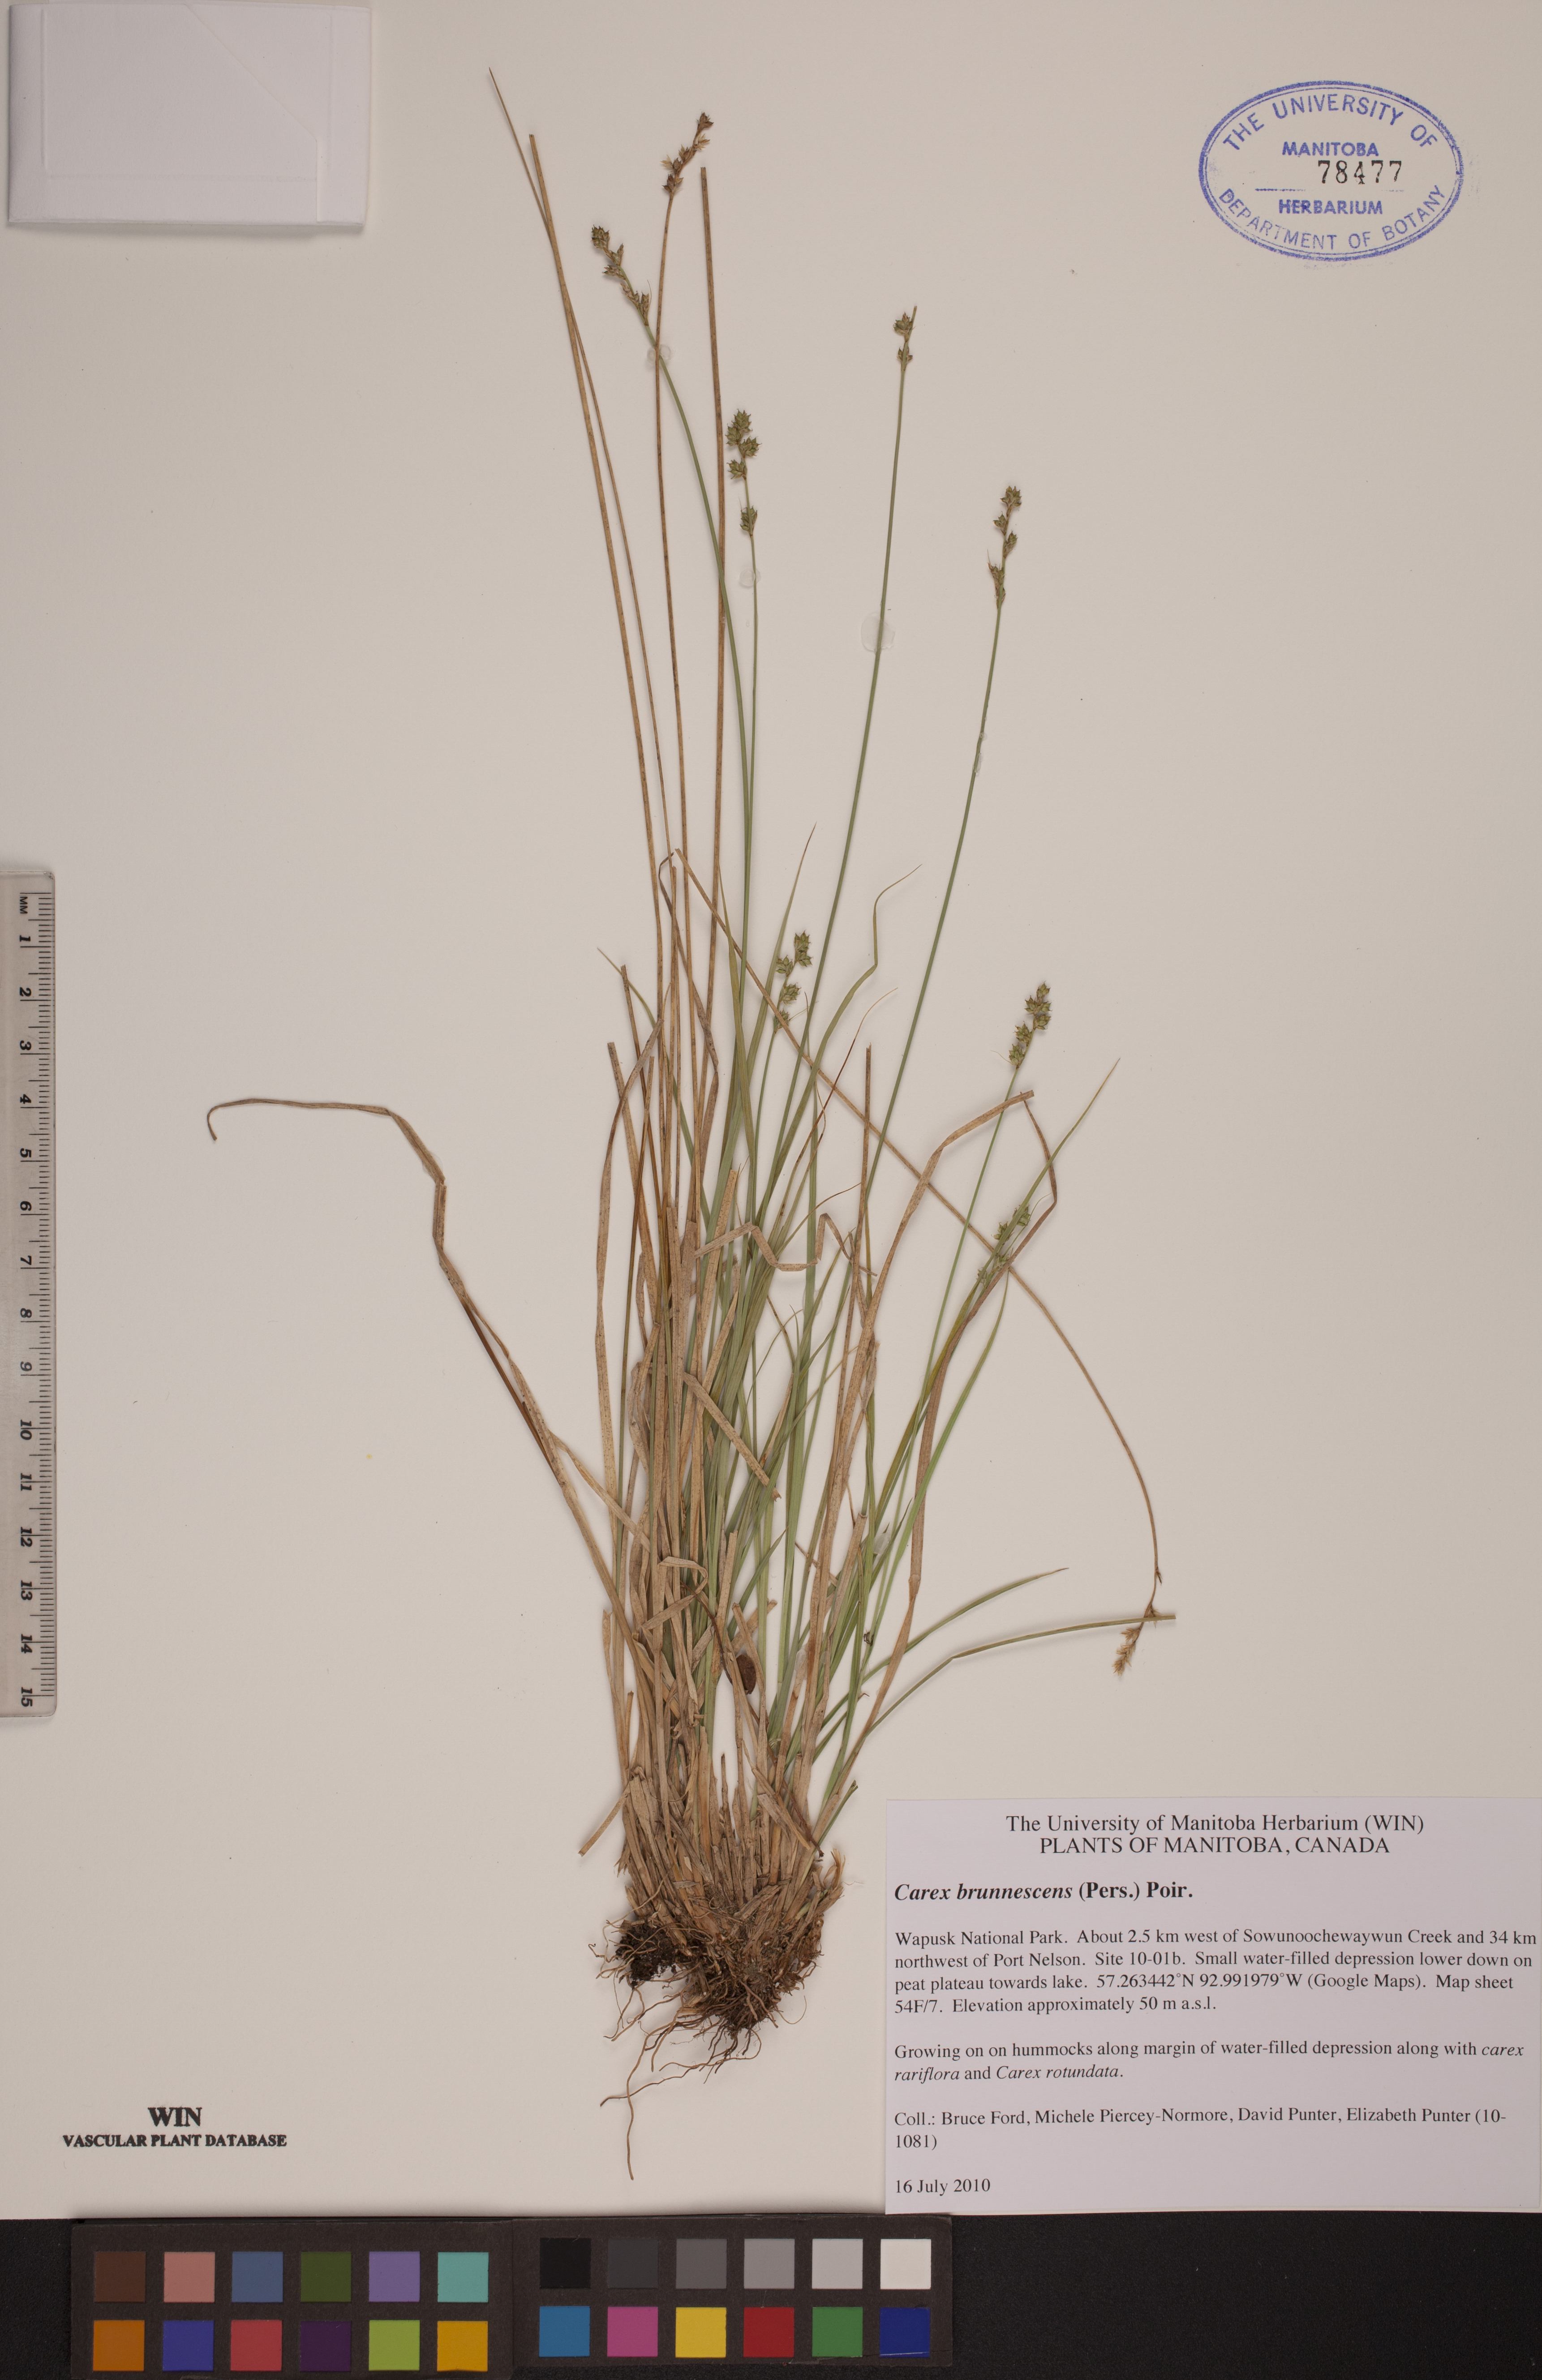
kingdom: Plantae
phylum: Tracheophyta
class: Liliopsida
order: Poales
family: Cyperaceae
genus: Carex
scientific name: Carex brunnescens
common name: Brown sedge
